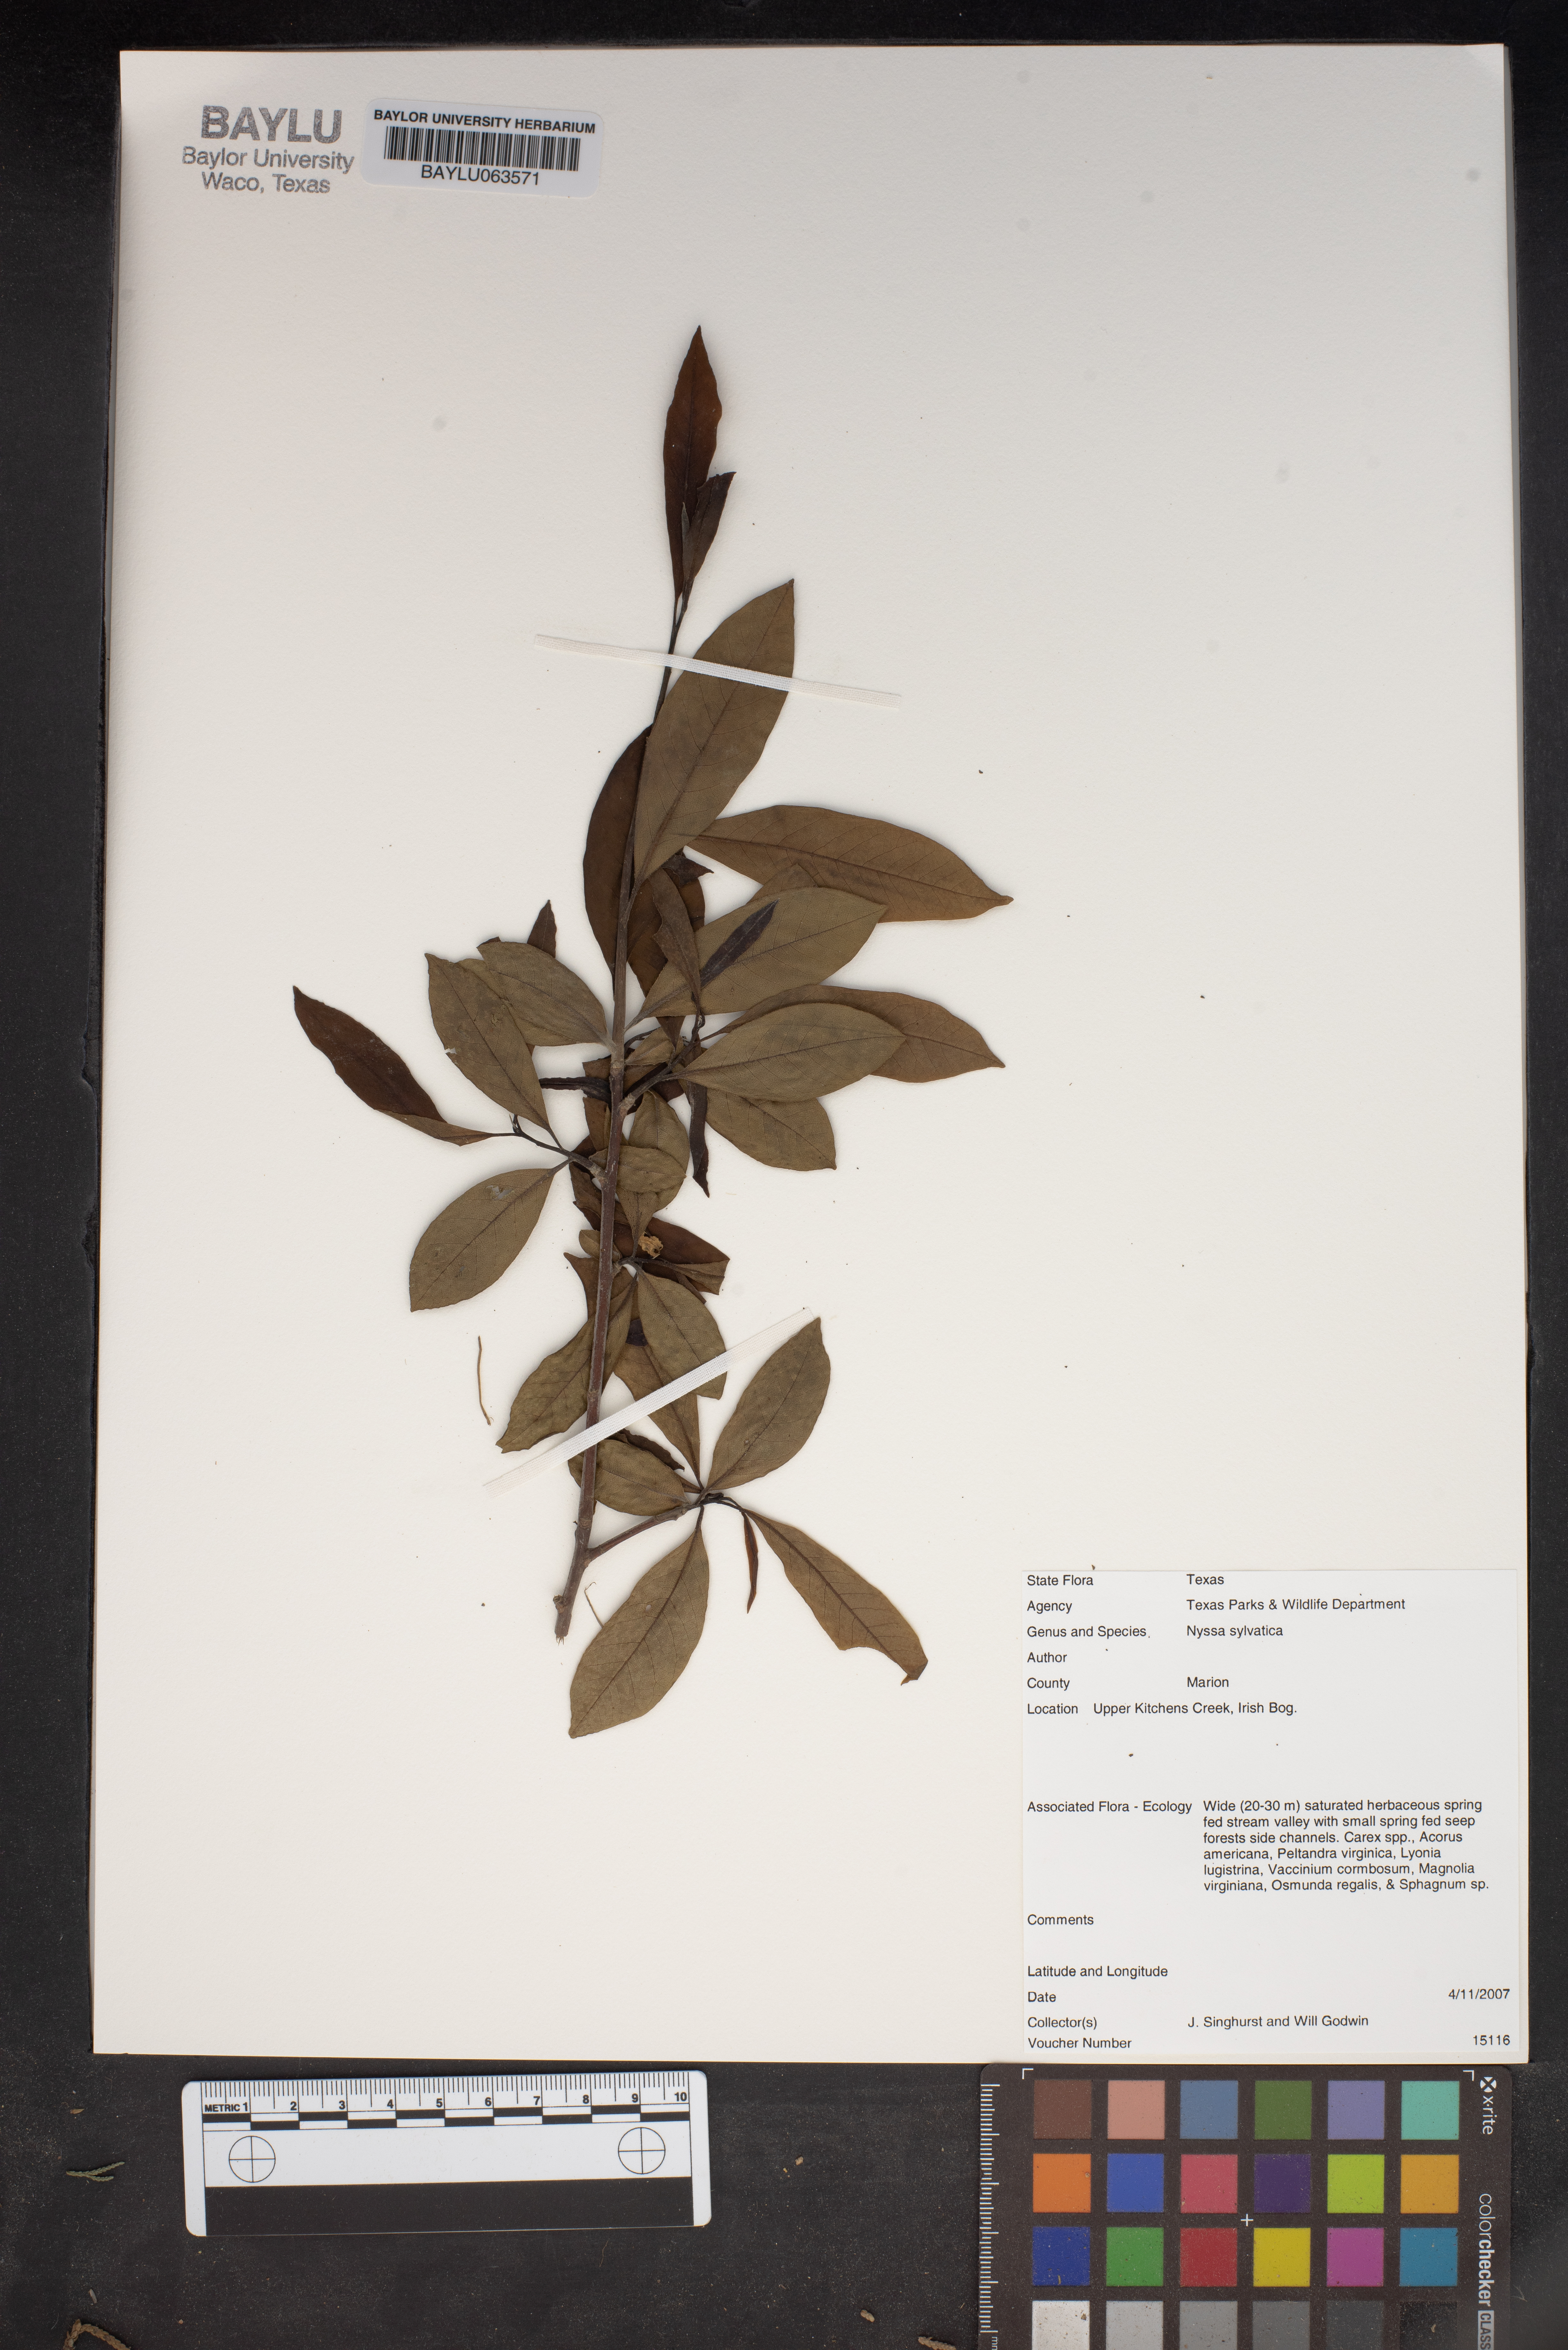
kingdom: Plantae
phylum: Tracheophyta
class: Magnoliopsida
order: Cornales
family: Nyssaceae
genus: Nyssa
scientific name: Nyssa sylvatica
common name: Black tupelo
